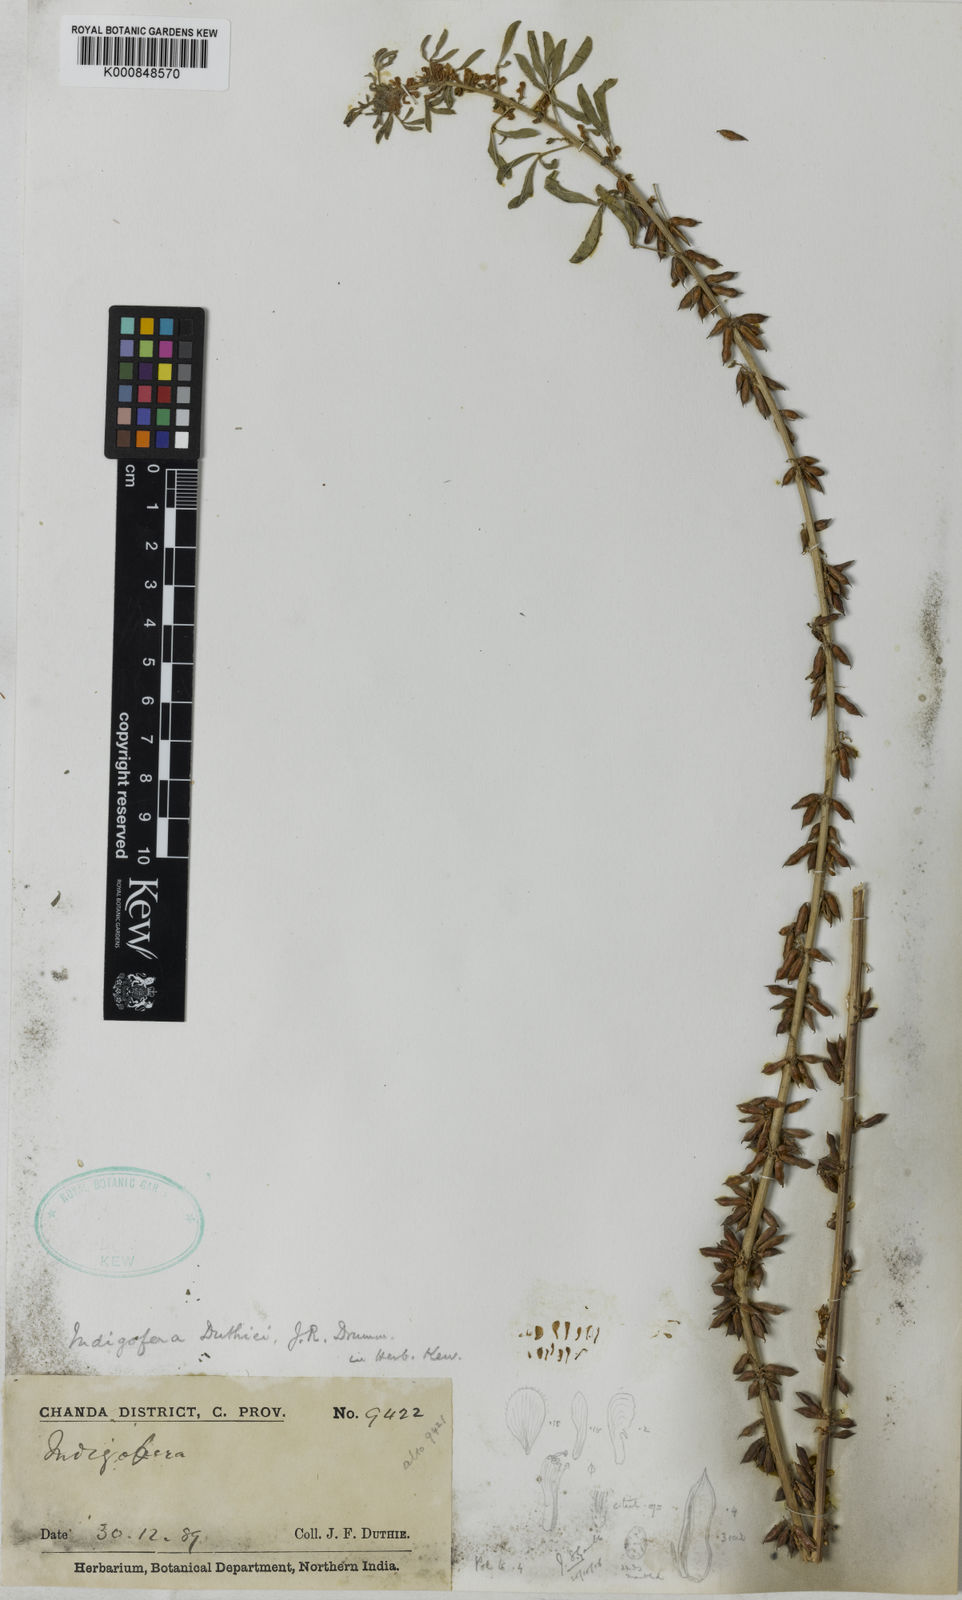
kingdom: Plantae
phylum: Tracheophyta
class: Magnoliopsida
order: Fabales
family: Fabaceae
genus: Indigofera
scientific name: Indigofera trifoliata
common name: Threeleaf indigo
